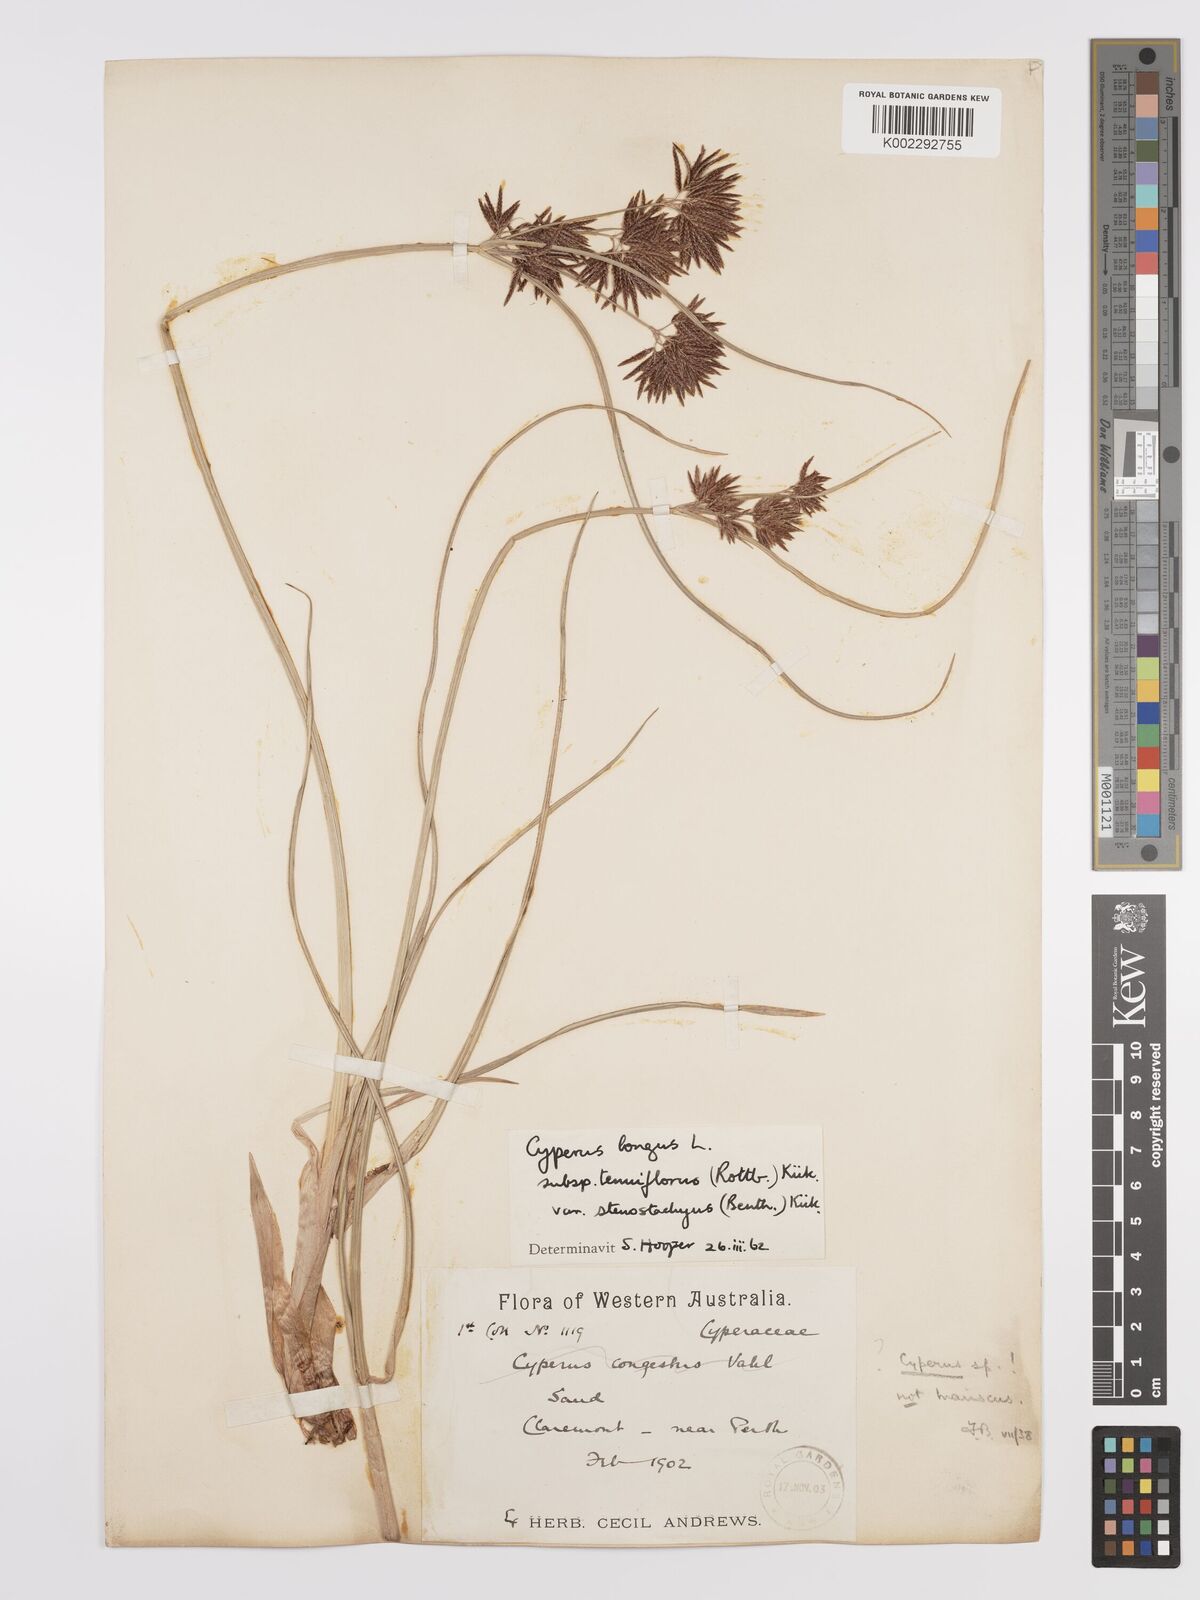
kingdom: Plantae
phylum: Tracheophyta
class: Liliopsida
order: Poales
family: Cyperaceae
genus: Cyperus
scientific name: Cyperus longus
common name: Galingale
